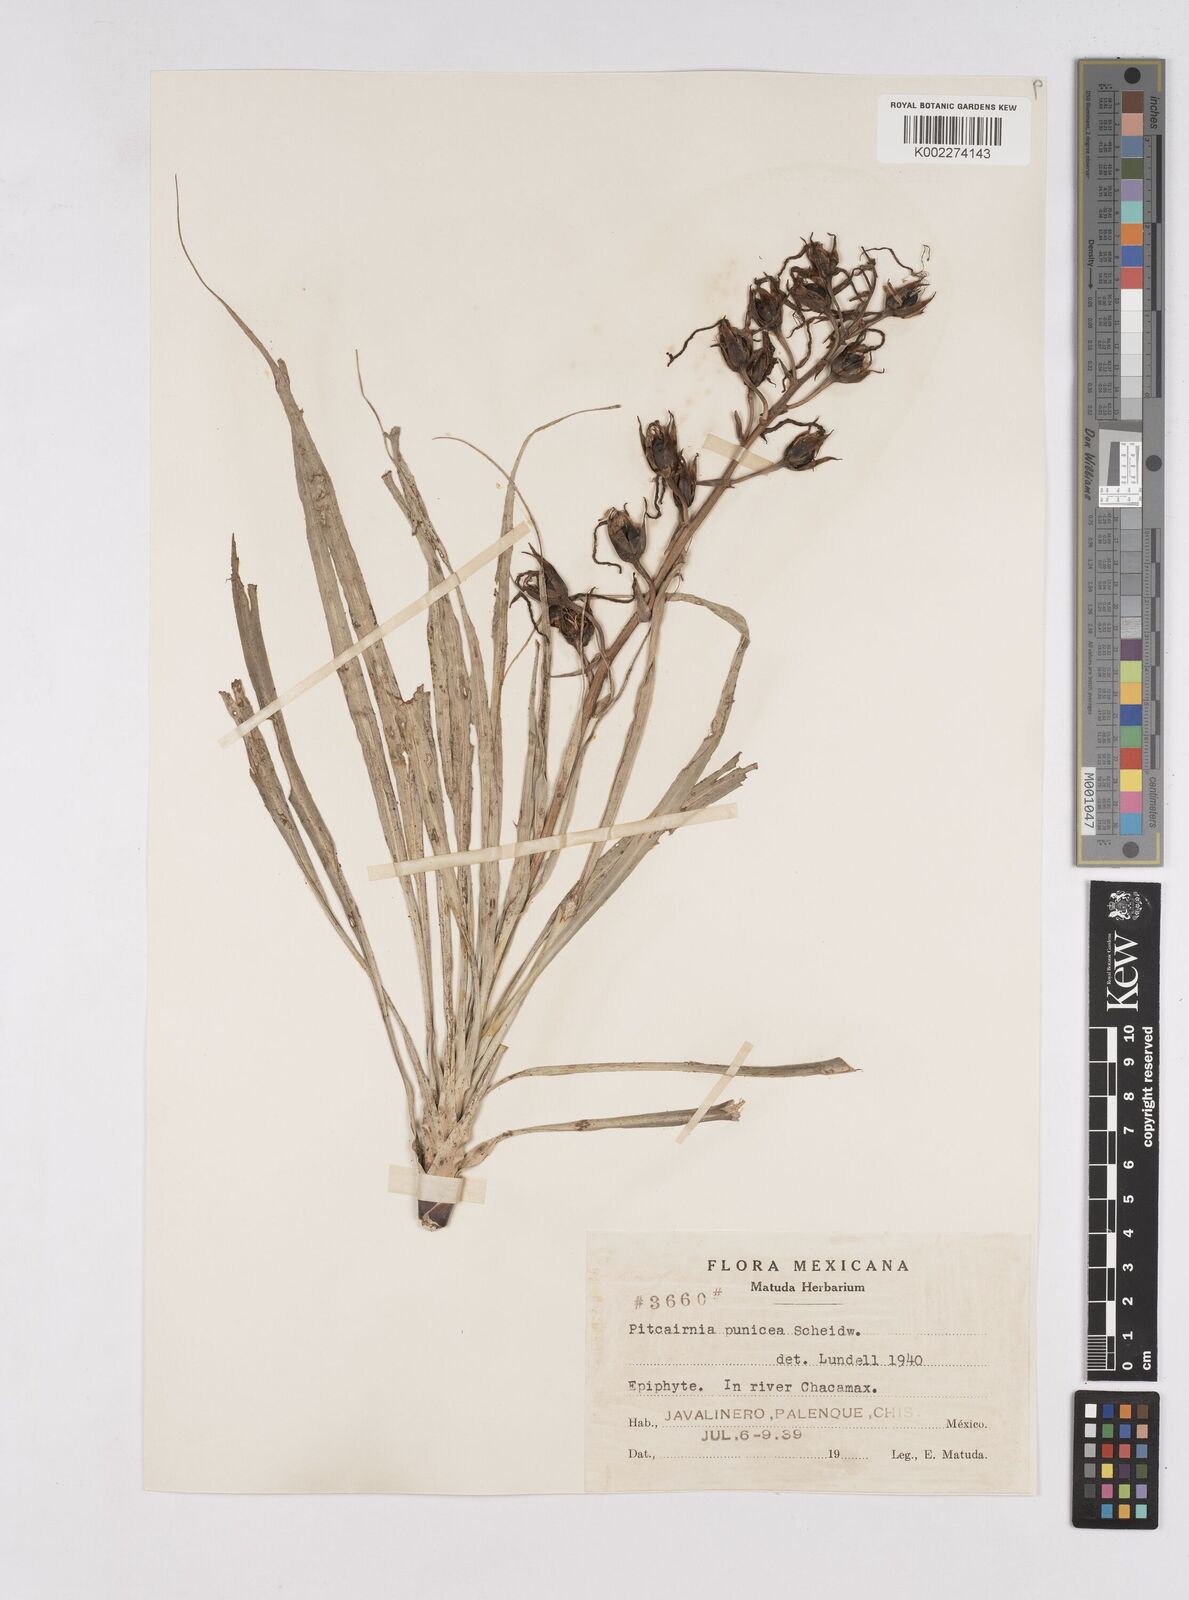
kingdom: Plantae
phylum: Tracheophyta
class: Liliopsida
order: Poales
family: Bromeliaceae
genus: Pitcairnia
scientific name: Pitcairnia punicea
